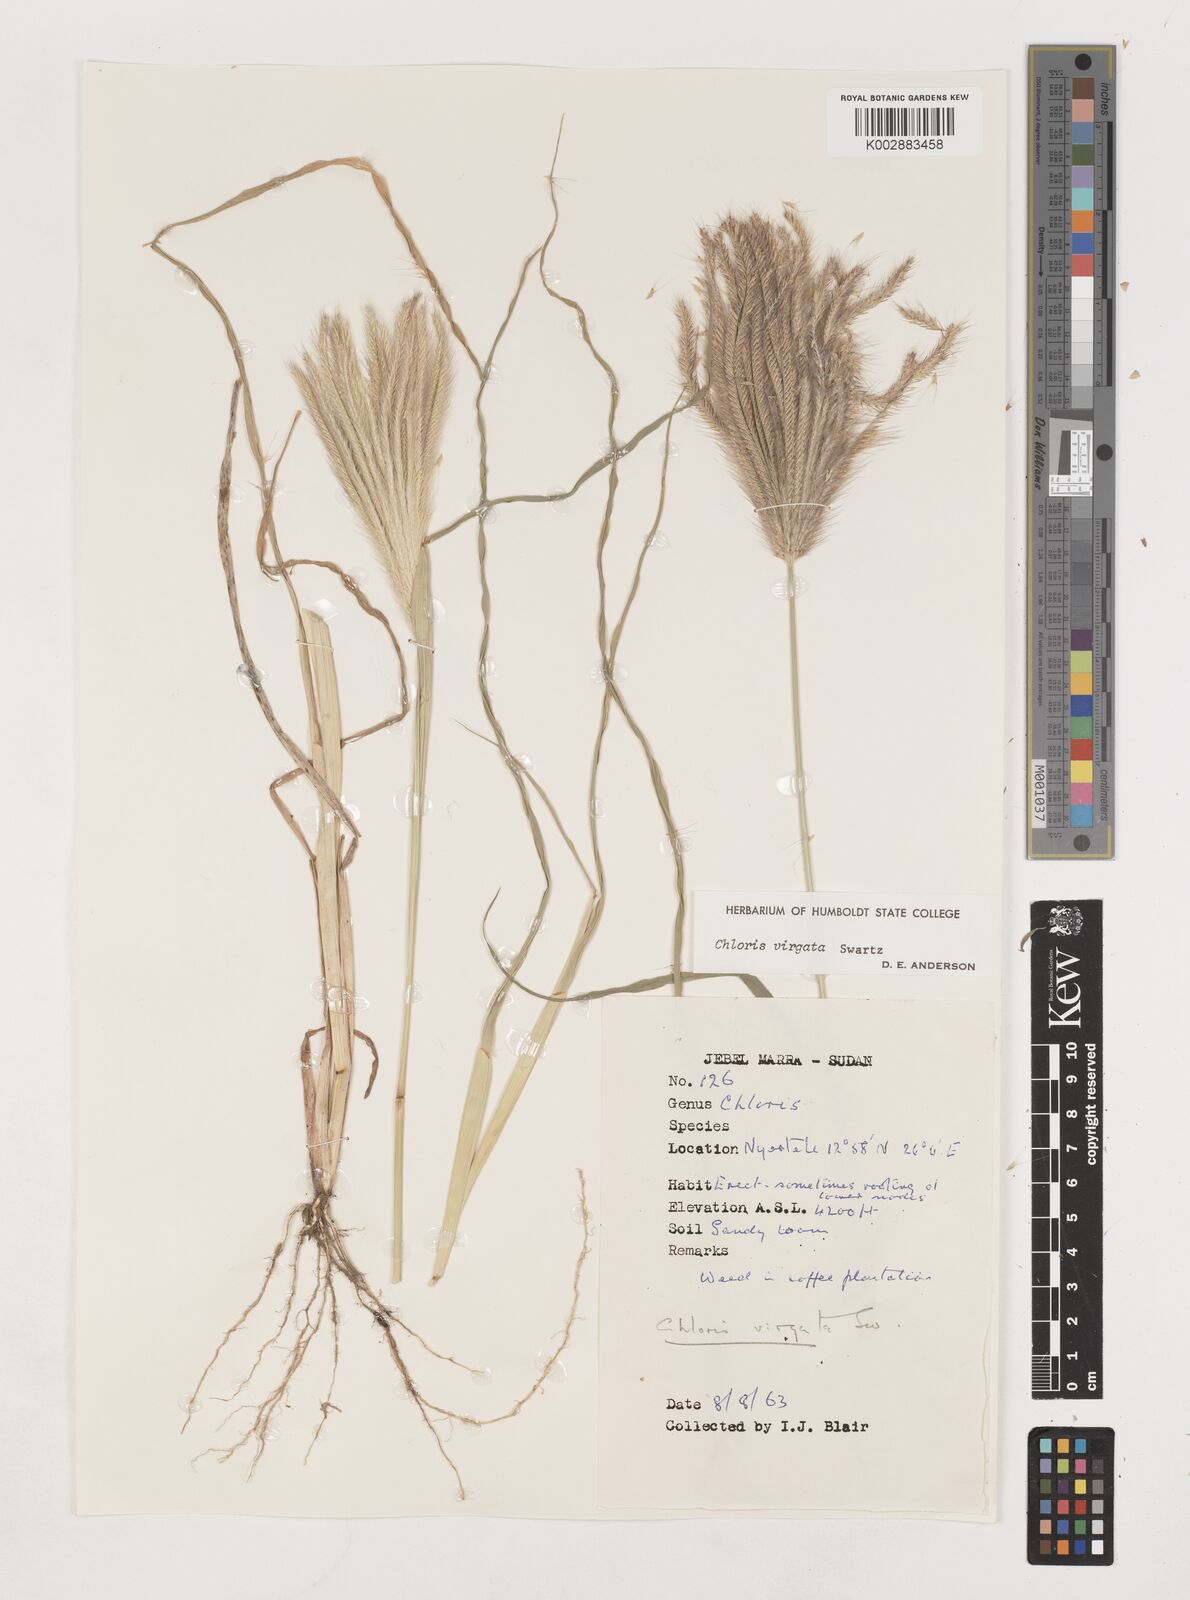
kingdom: Plantae
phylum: Tracheophyta
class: Liliopsida
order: Poales
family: Poaceae
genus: Chloris
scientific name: Chloris virgata
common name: Feathery rhodes-grass
